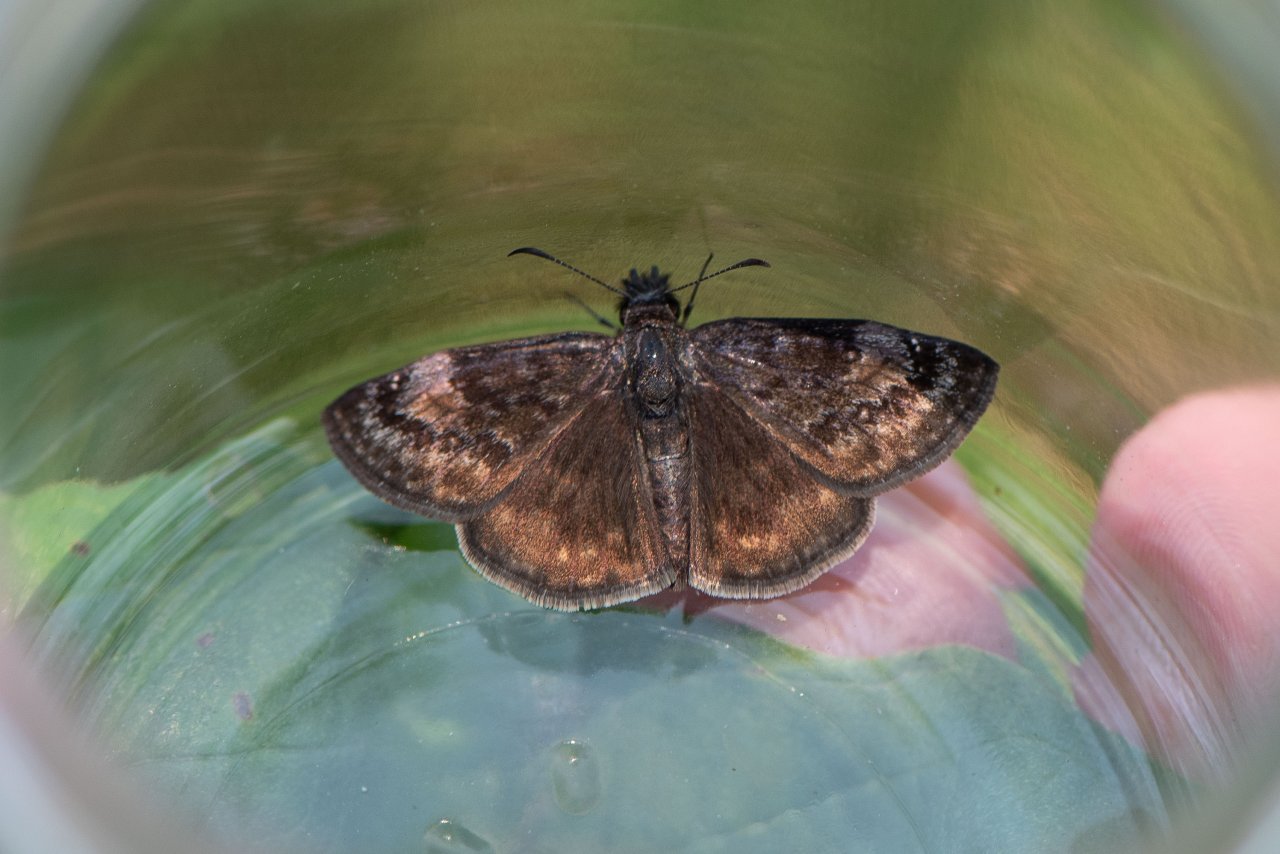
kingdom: Animalia
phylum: Arthropoda
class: Insecta
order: Lepidoptera
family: Hesperiidae
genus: Gesta
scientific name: Gesta
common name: Wild Indigo Duskywing
